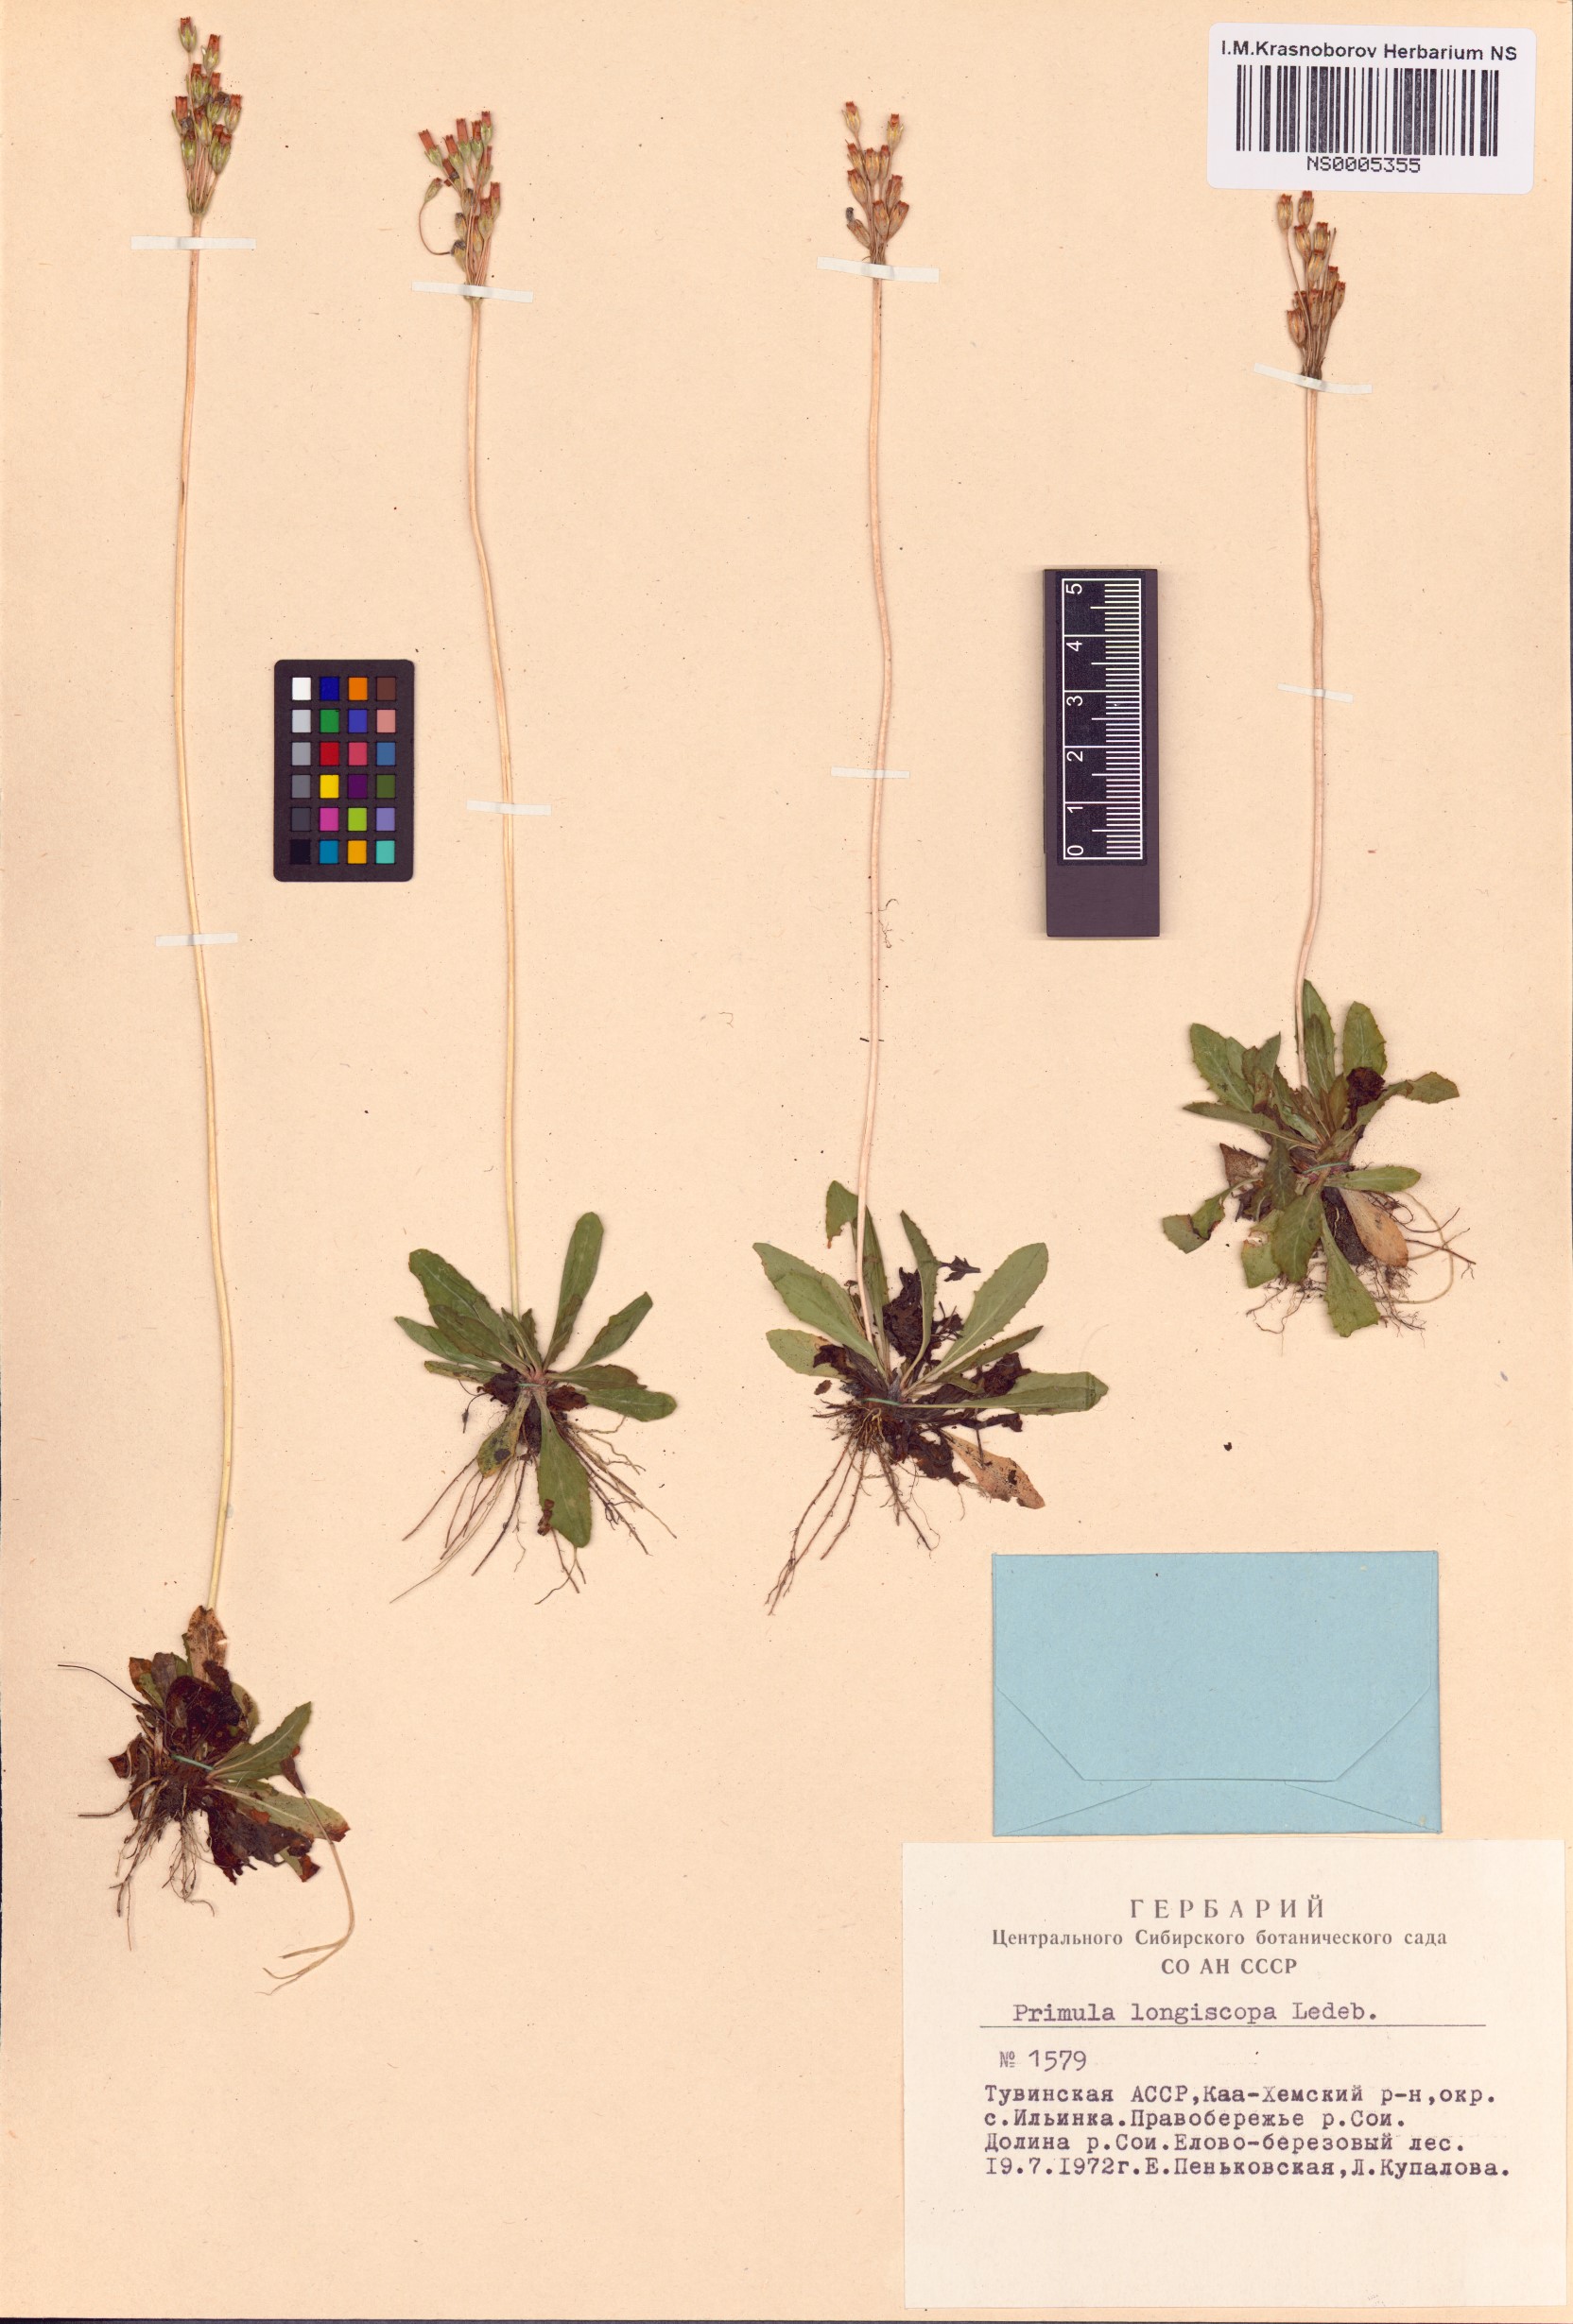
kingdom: Plantae
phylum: Tracheophyta
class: Magnoliopsida
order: Ericales
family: Primulaceae
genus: Primula
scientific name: Primula longiscapa
